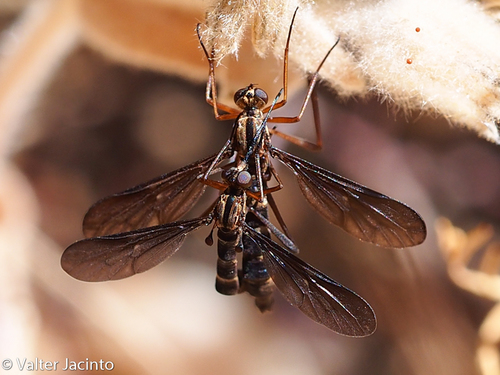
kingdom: Animalia
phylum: Arthropoda
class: Insecta
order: Diptera
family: Vermileonidae
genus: Lampromyia
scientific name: Lampromyia funebris
